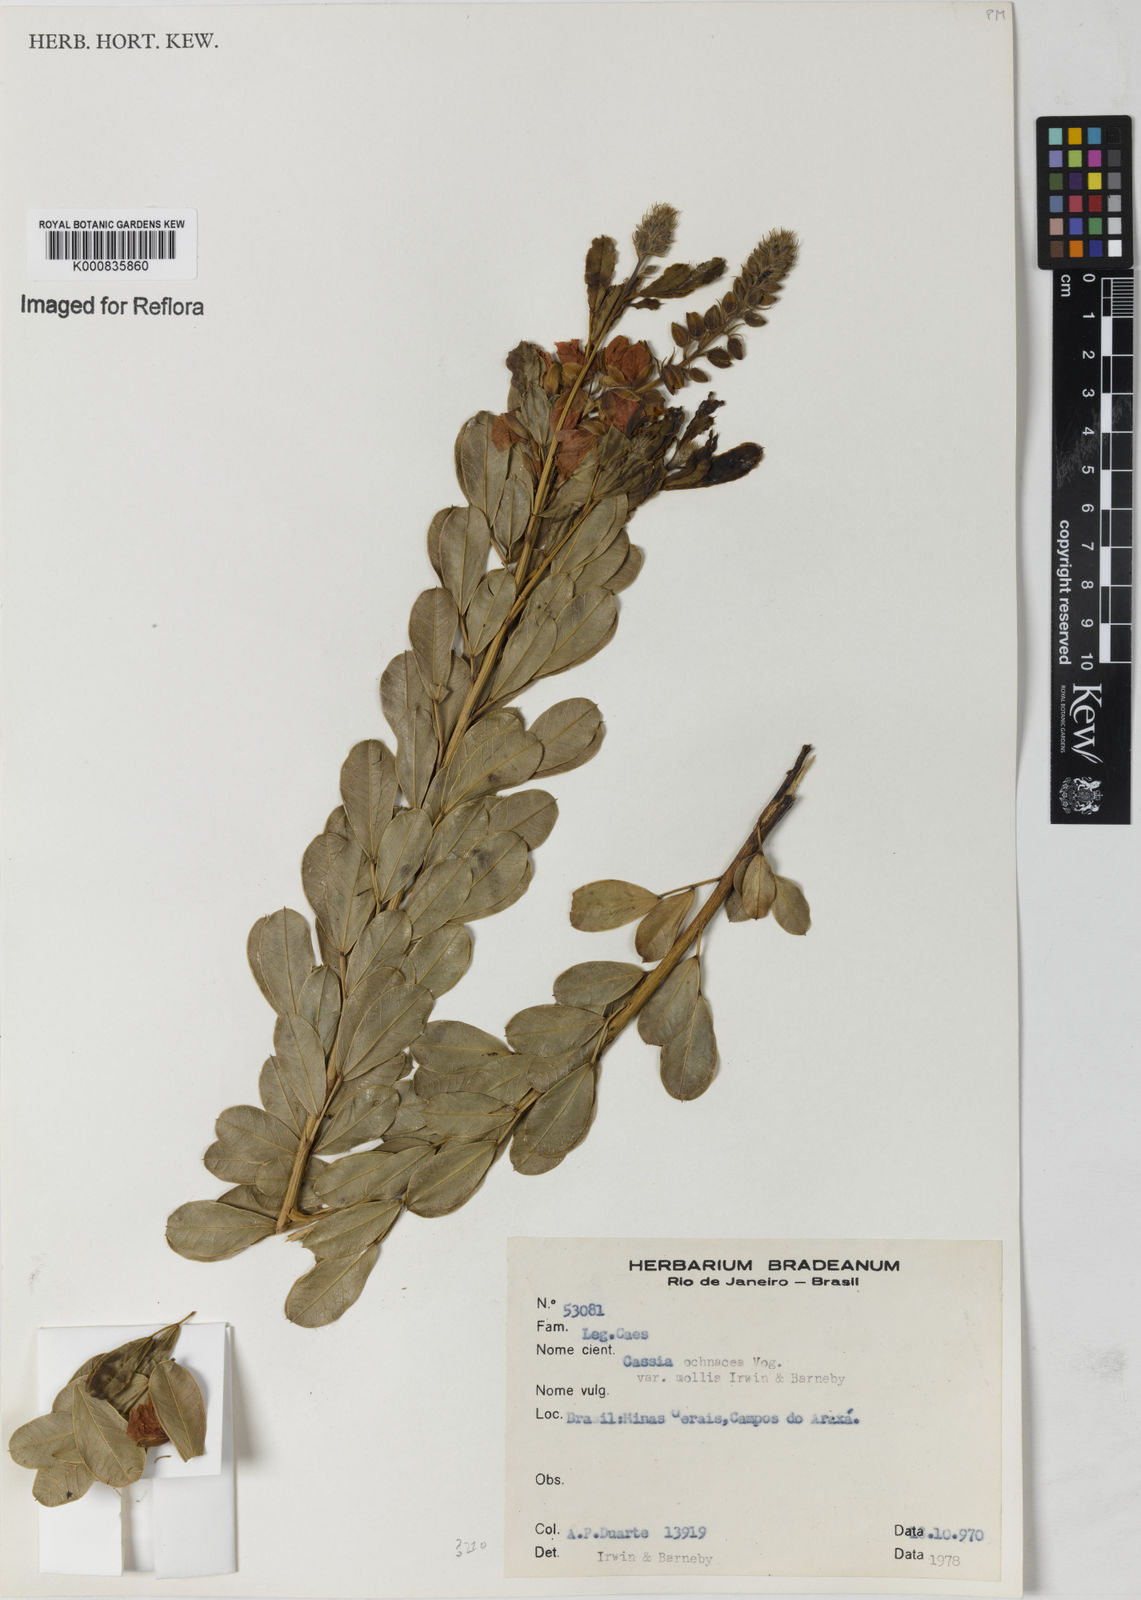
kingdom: Plantae
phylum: Tracheophyta
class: Magnoliopsida
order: Fabales
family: Fabaceae
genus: Chamaecrista
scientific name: Chamaecrista ochnacea
